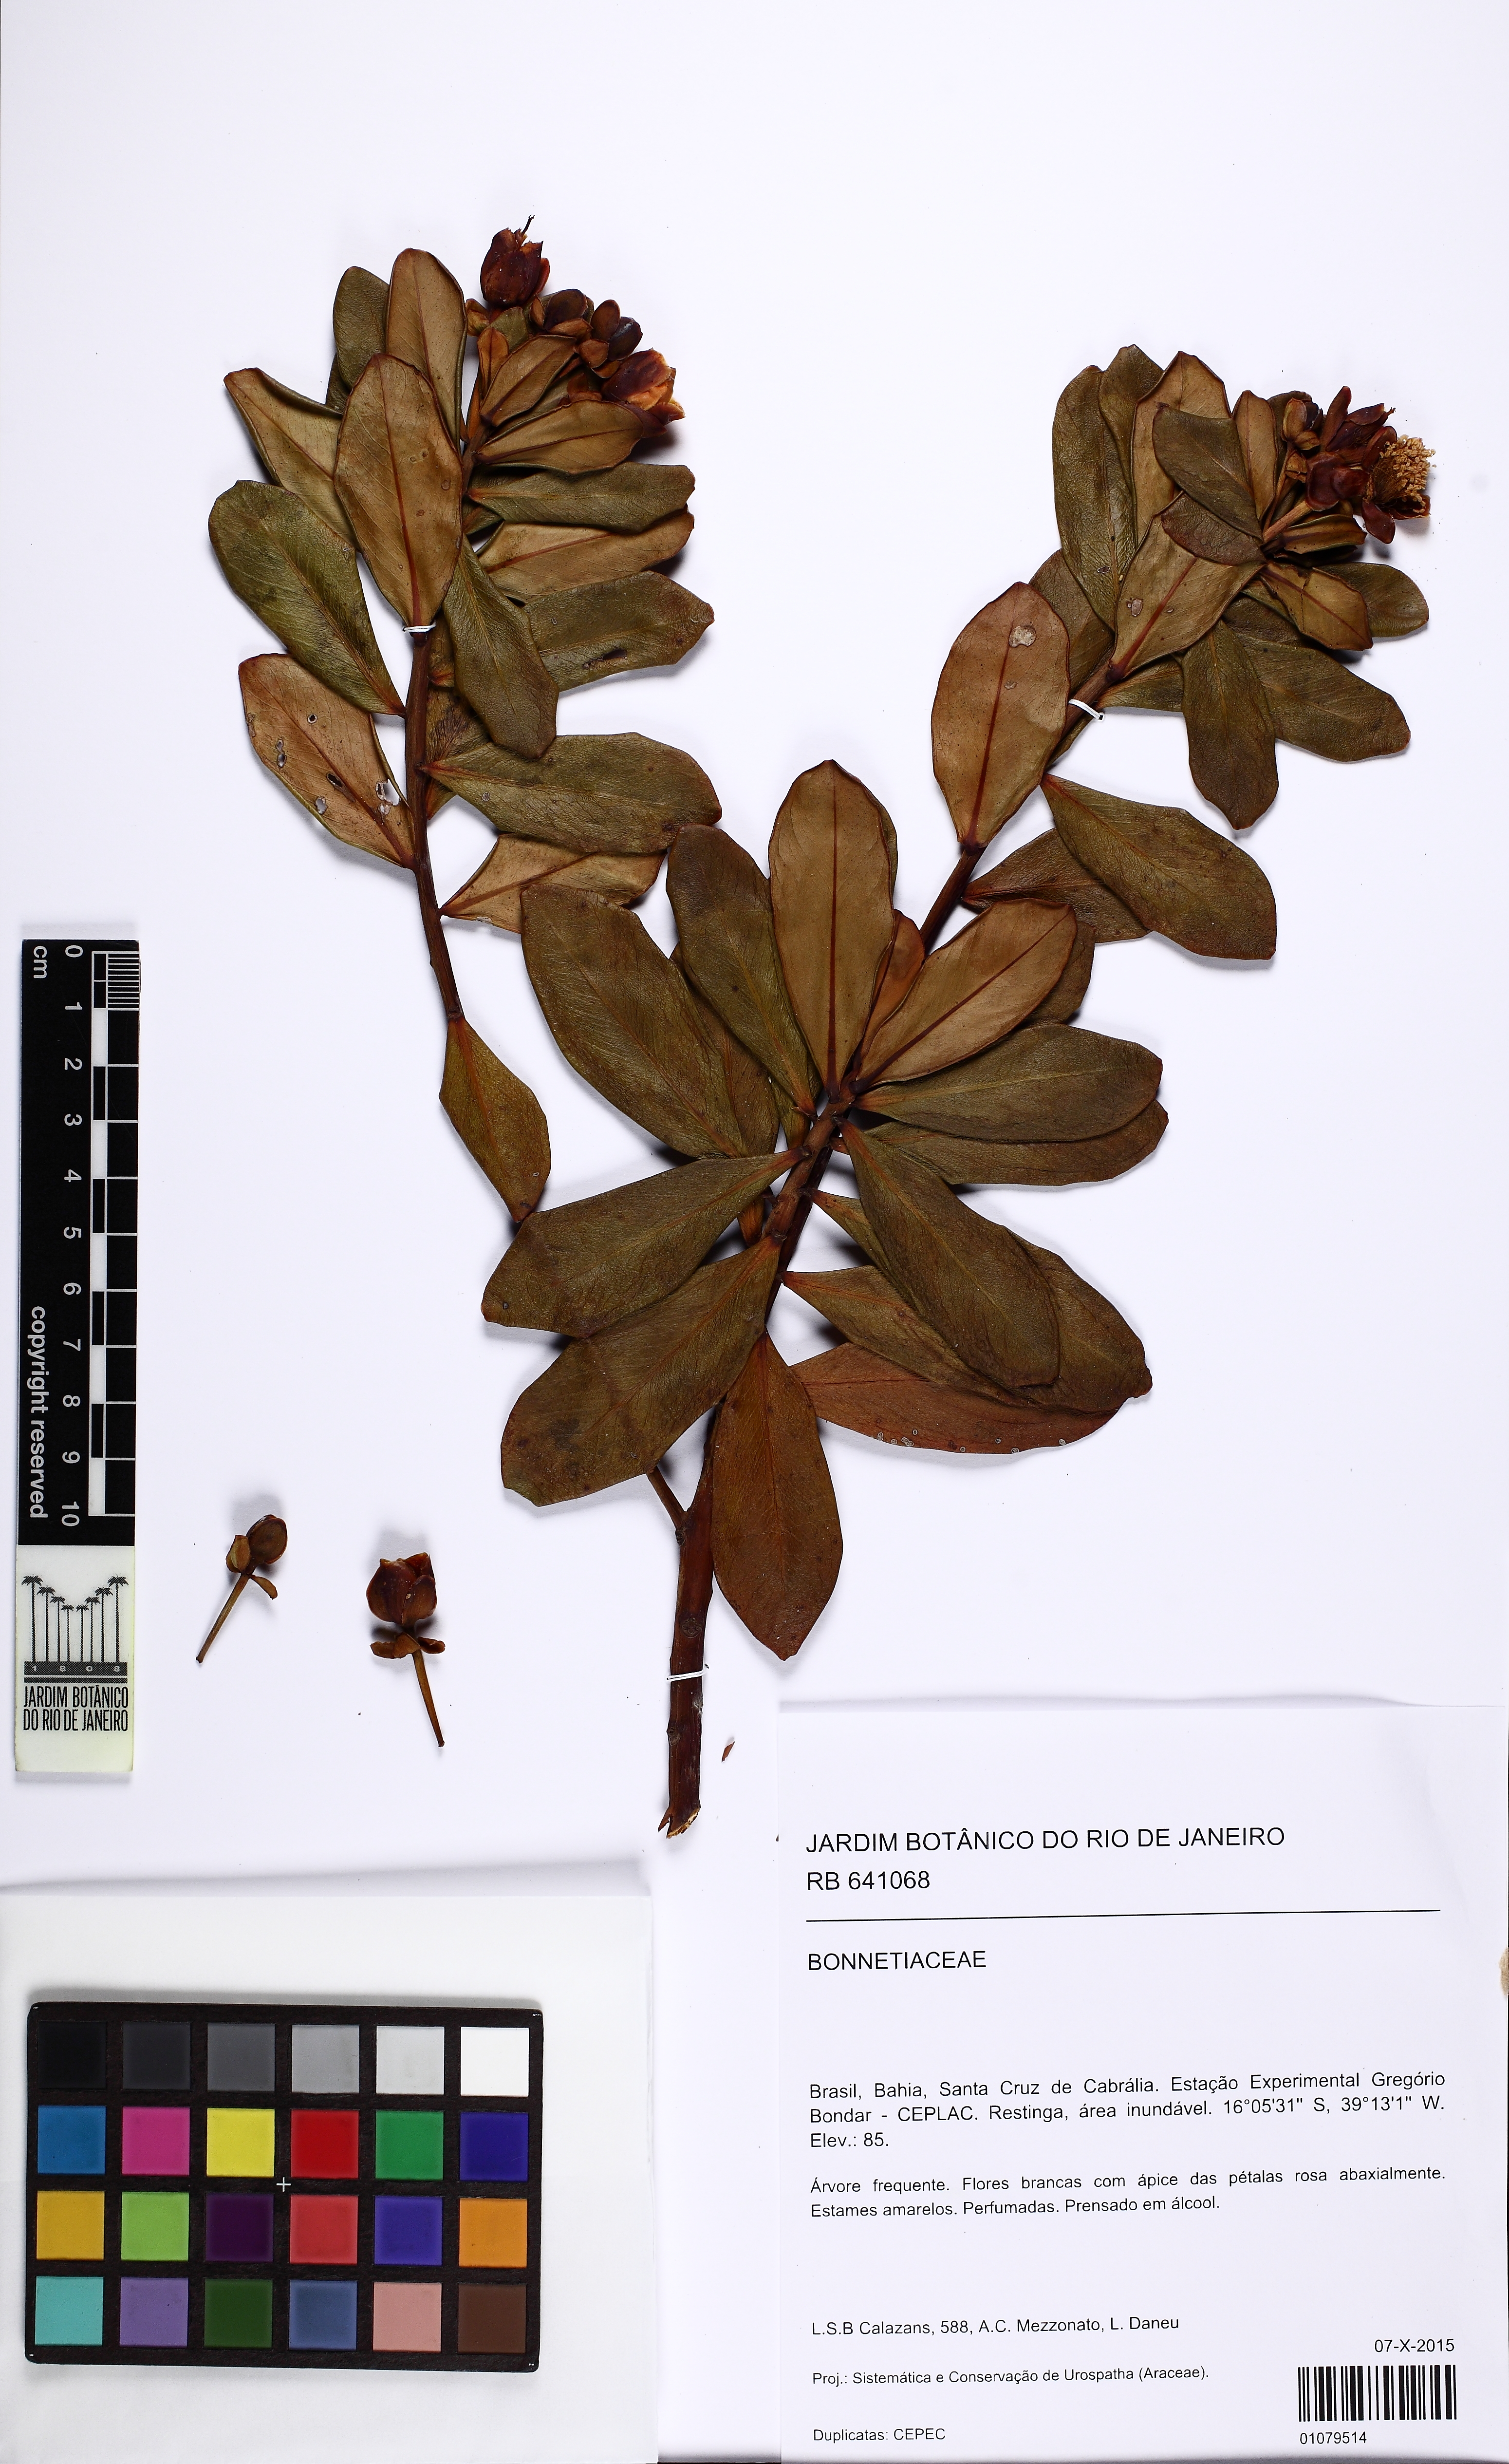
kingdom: Plantae
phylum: Tracheophyta
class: Magnoliopsida
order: Malpighiales
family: Bonnetiaceae
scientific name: Bonnetiaceae
